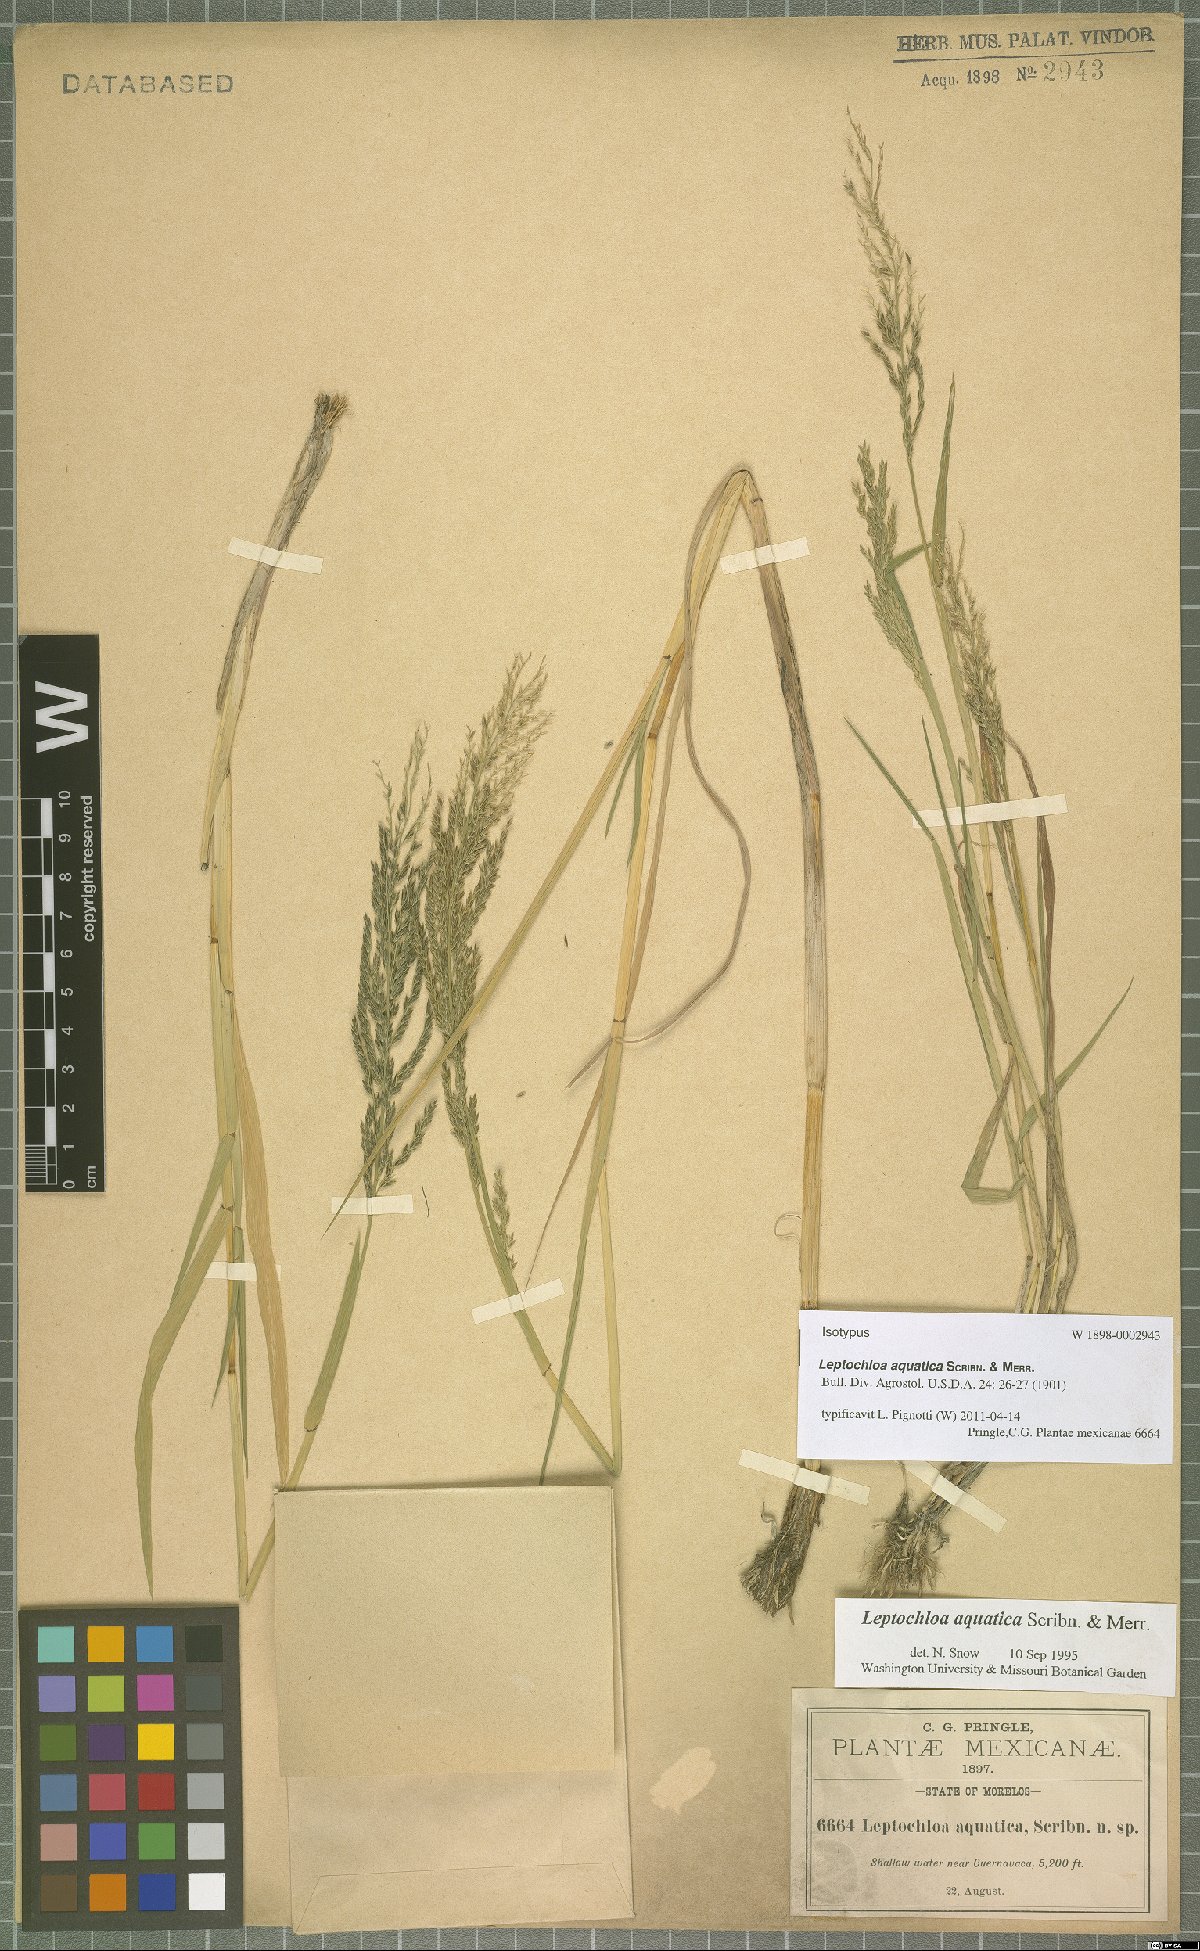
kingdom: Plantae
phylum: Tracheophyta
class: Liliopsida
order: Poales
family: Poaceae
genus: Leptochloa
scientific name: Leptochloa aquatica
